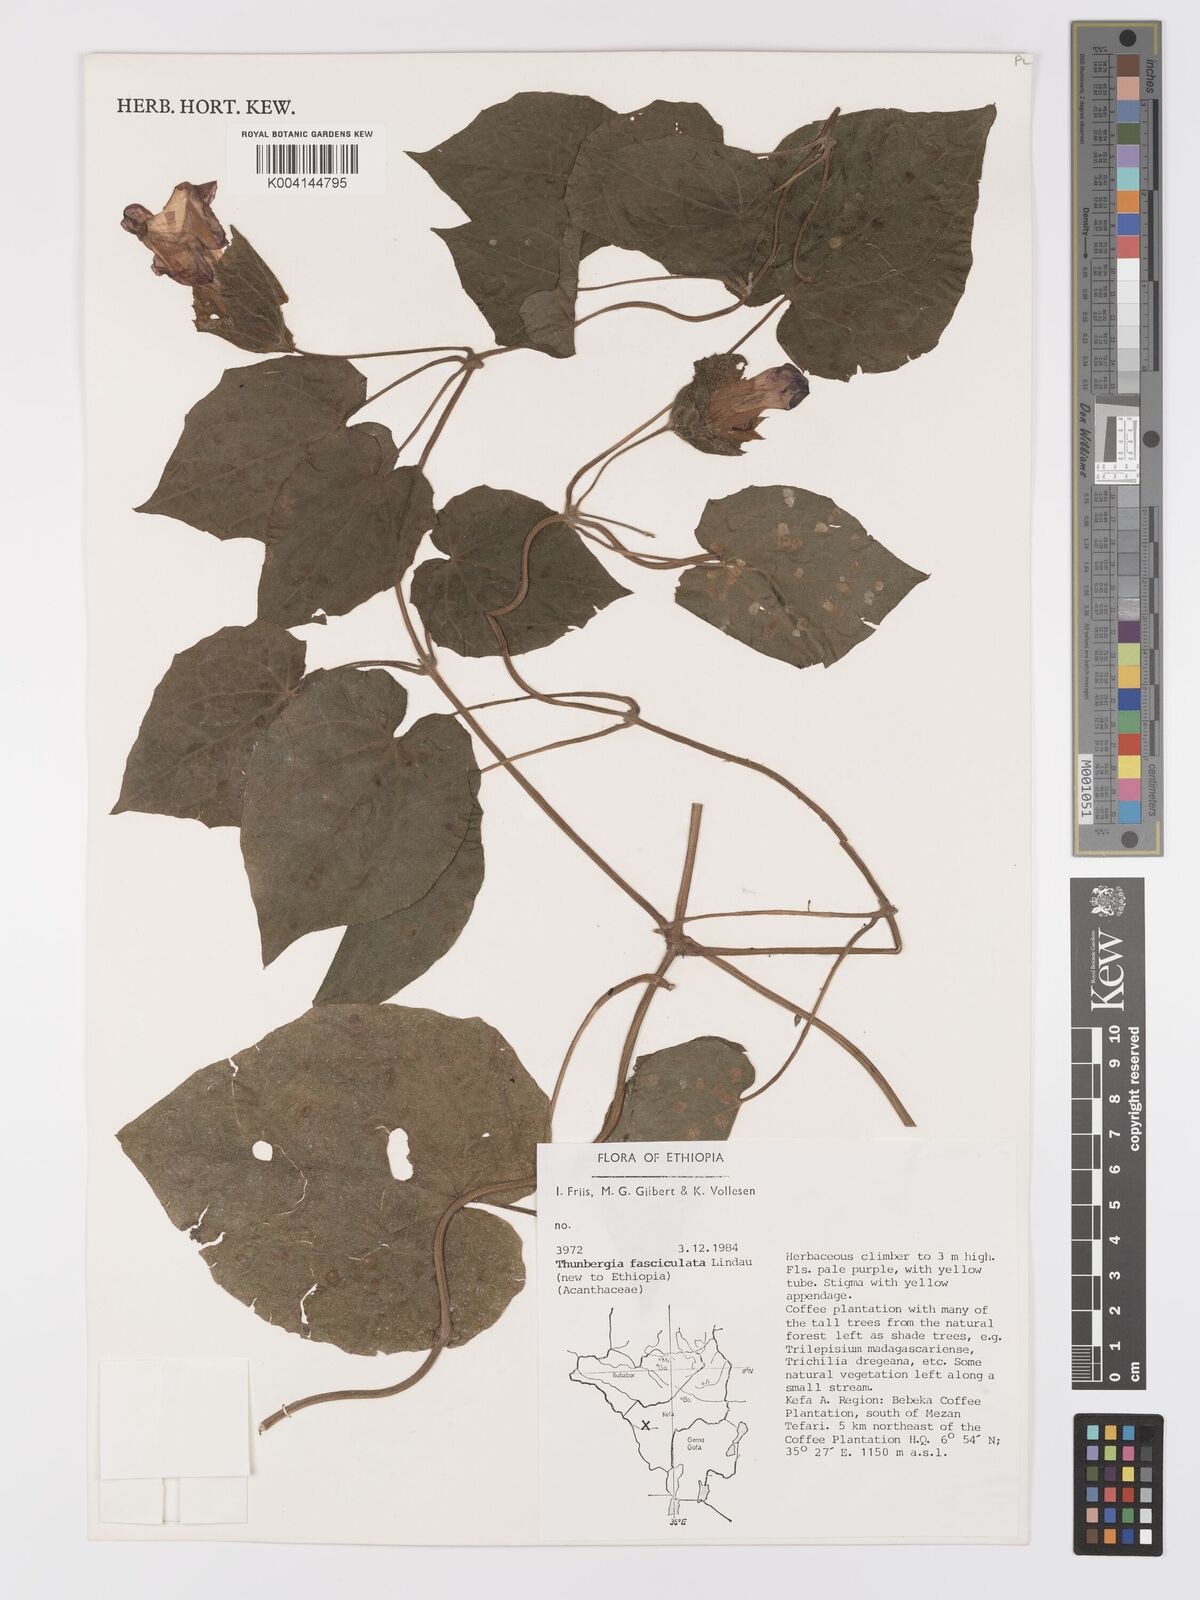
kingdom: Plantae
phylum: Tracheophyta
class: Magnoliopsida
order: Lamiales
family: Acanthaceae
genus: Thunbergia
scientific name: Thunbergia
